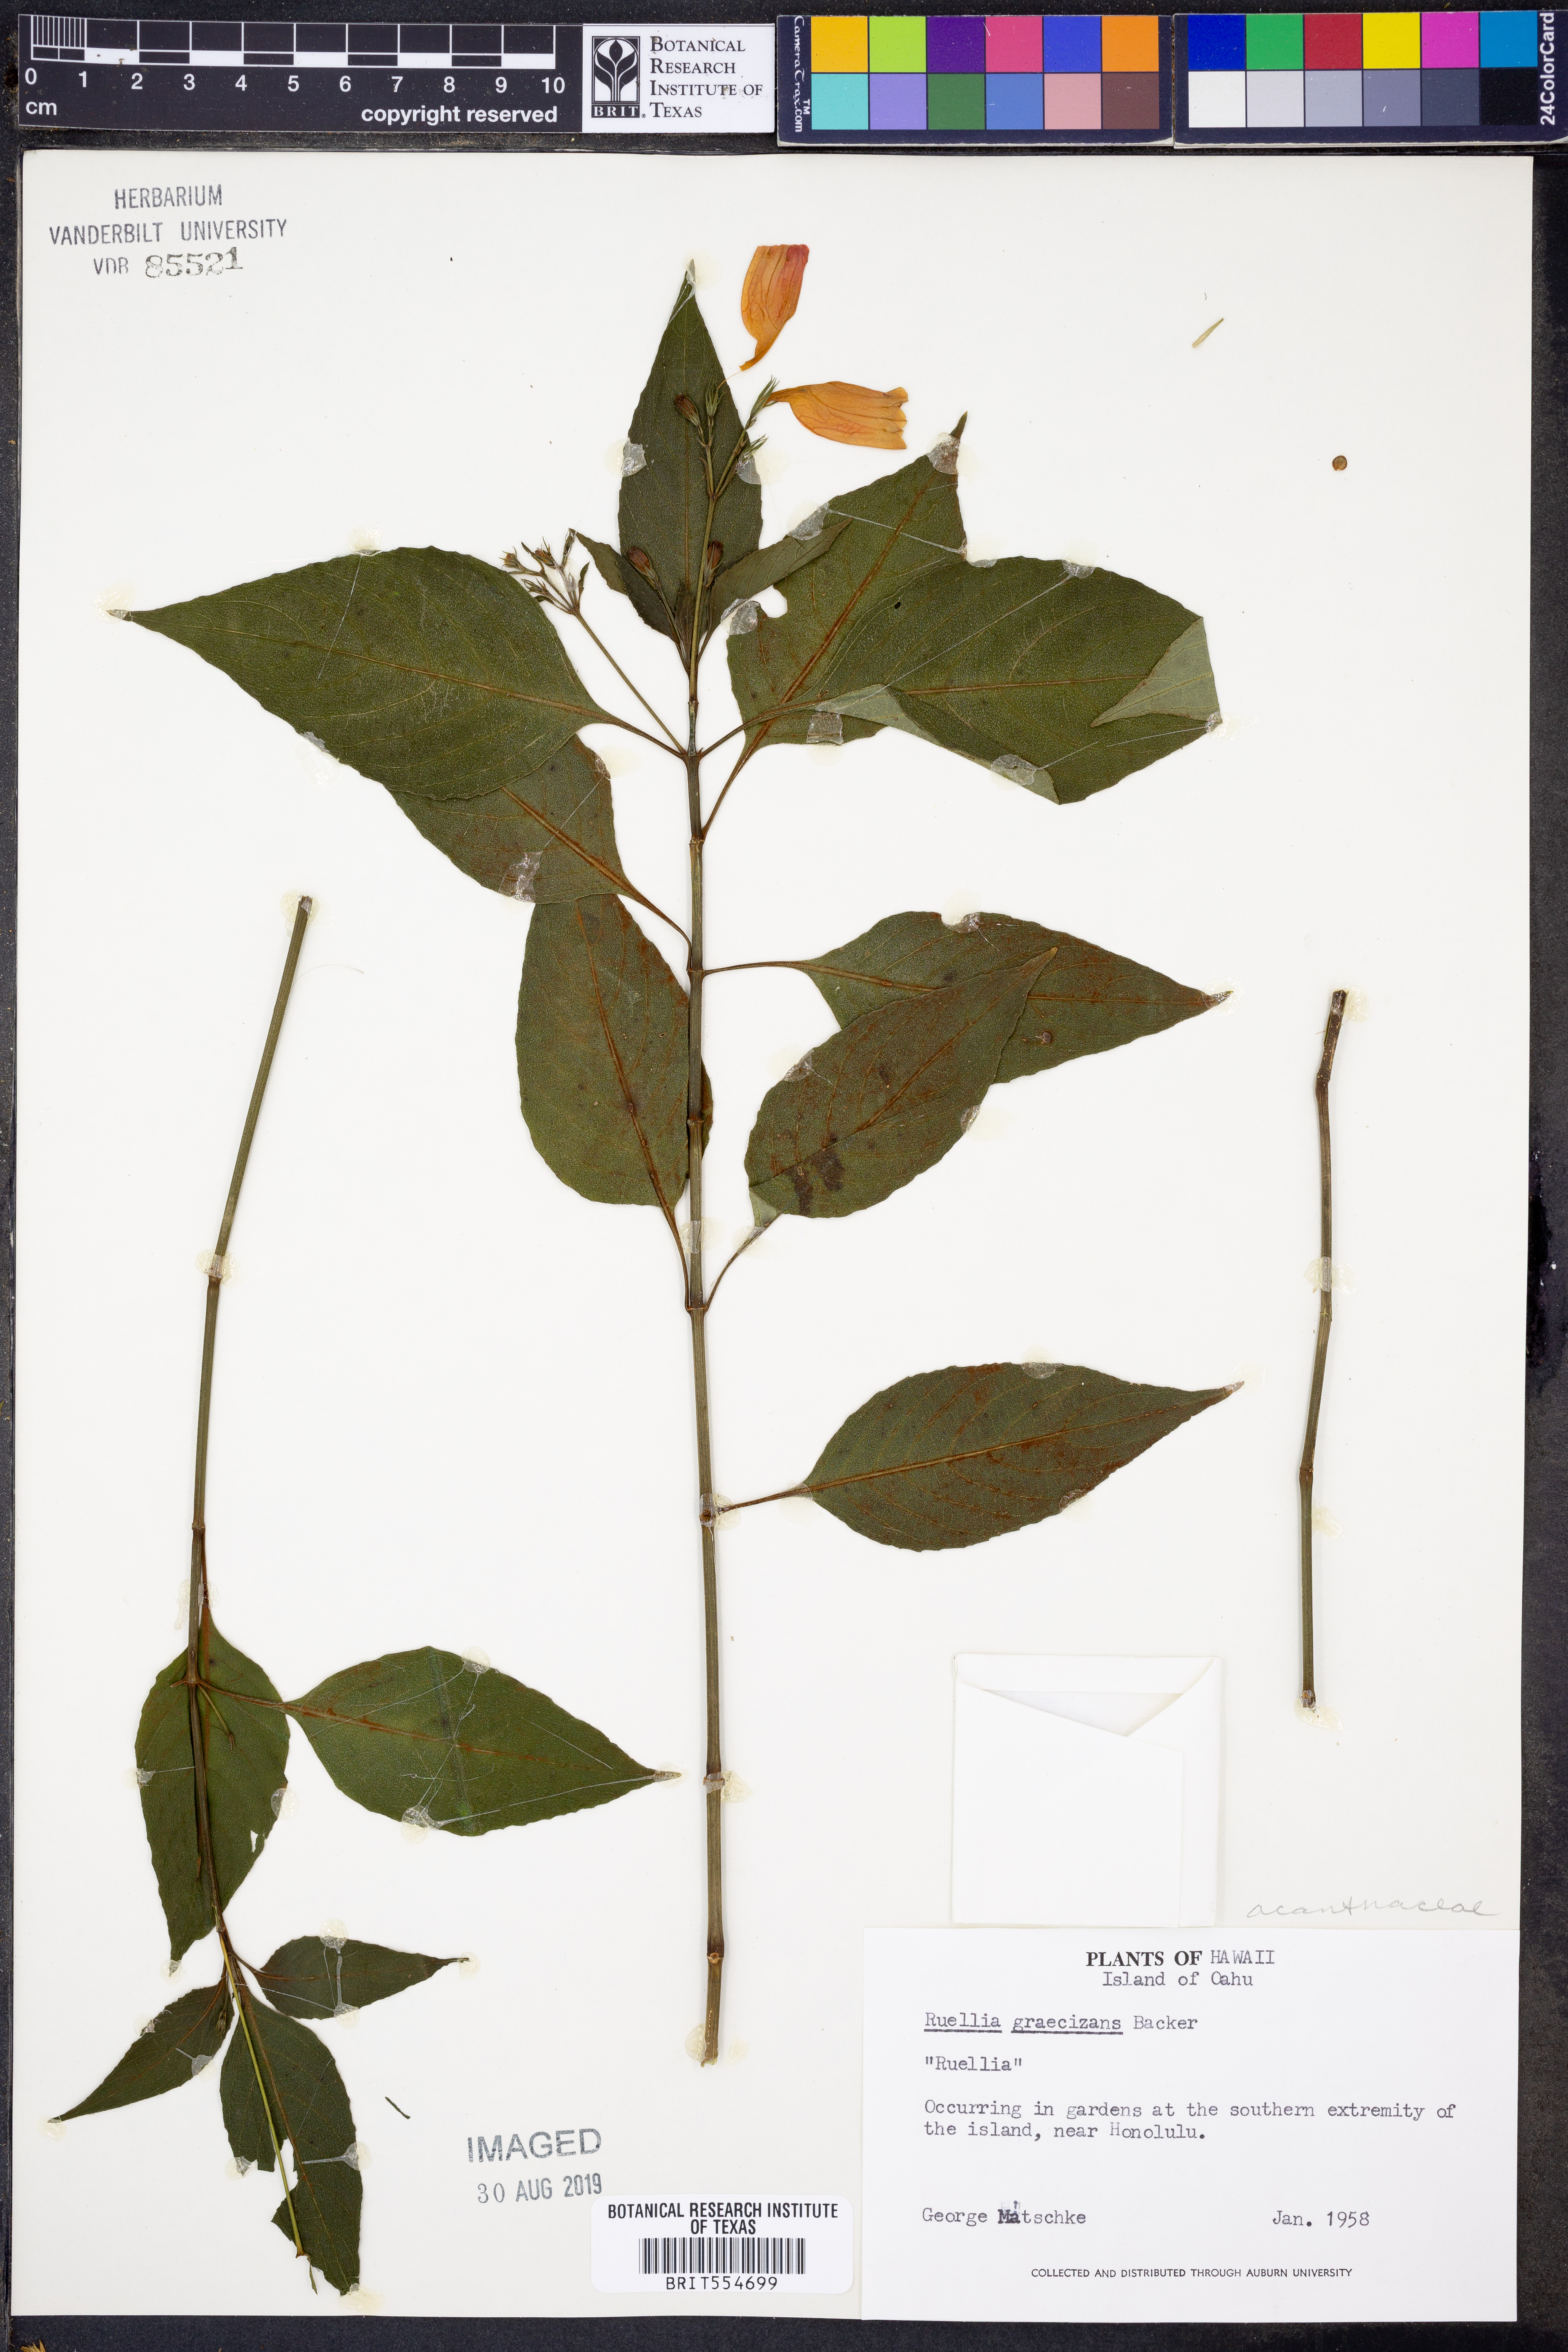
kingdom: Plantae
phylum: Tracheophyta
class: Magnoliopsida
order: Lamiales
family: Acanthaceae
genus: Ruellia
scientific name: Ruellia brevifolia
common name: Tropical wild petunia
